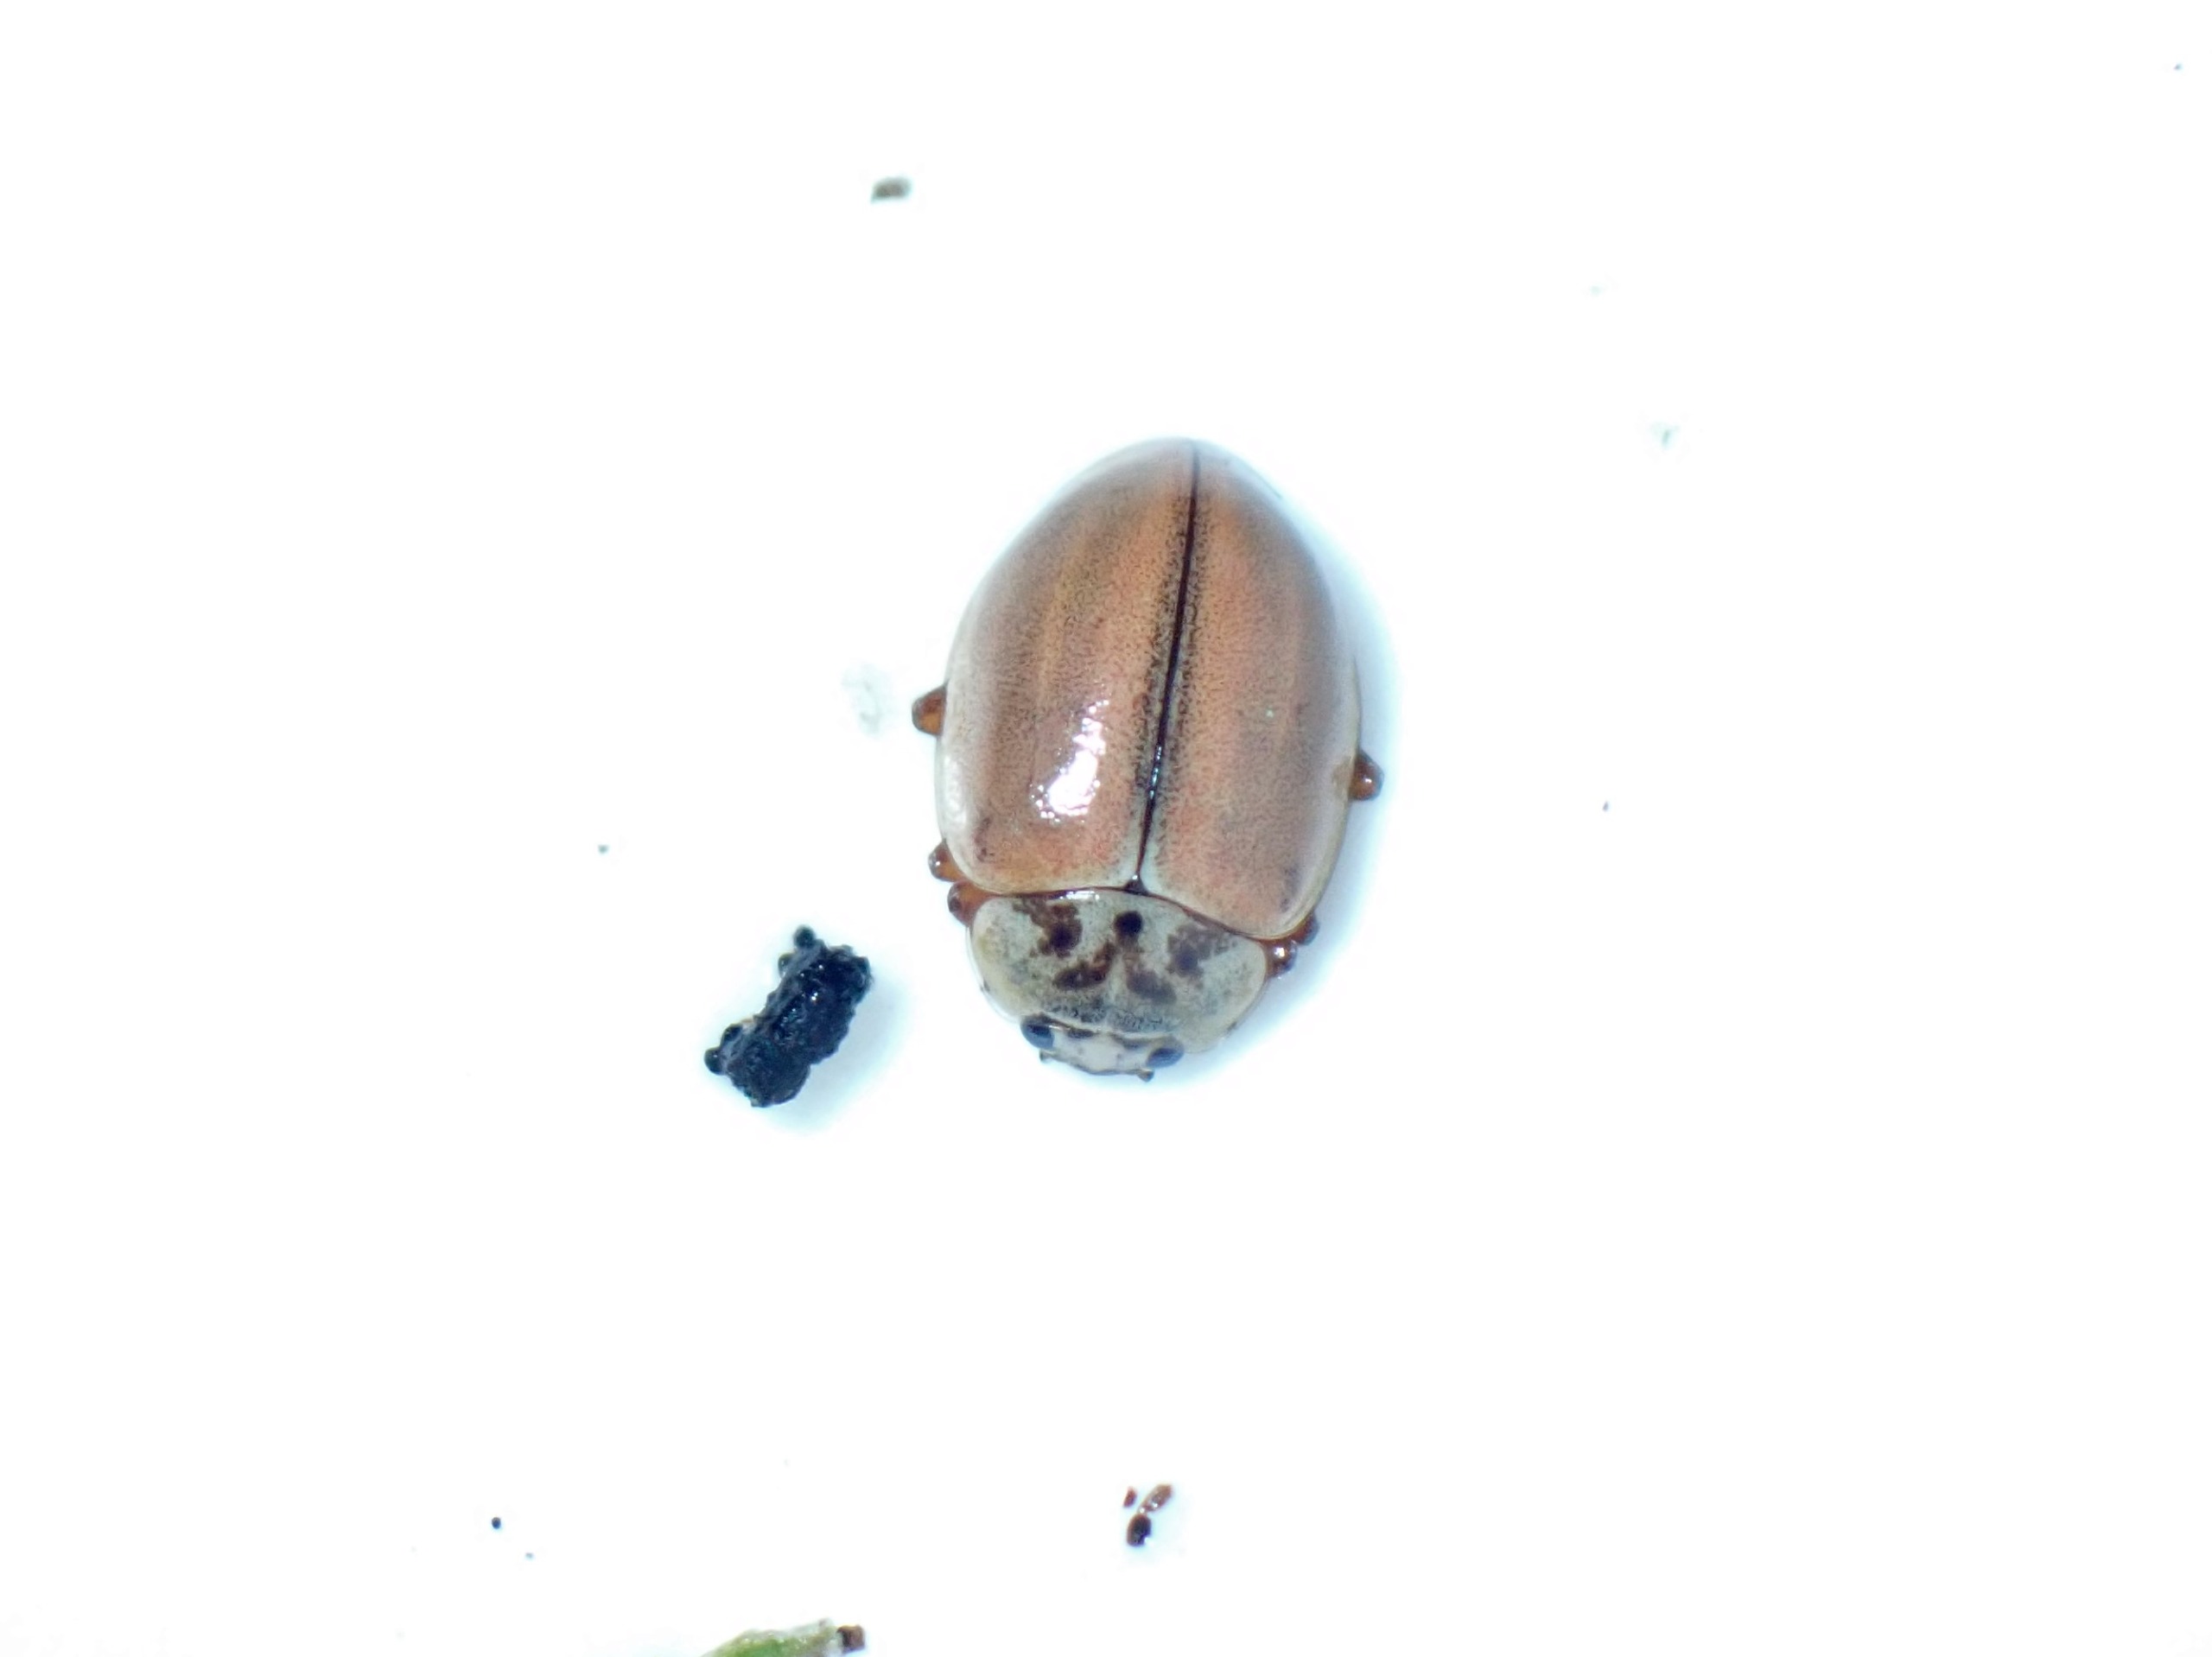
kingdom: Animalia
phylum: Arthropoda
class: Insecta
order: Coleoptera
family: Coccinellidae
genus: Aphidecta
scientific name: Aphidecta obliterata
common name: Uplettet mariehøne
